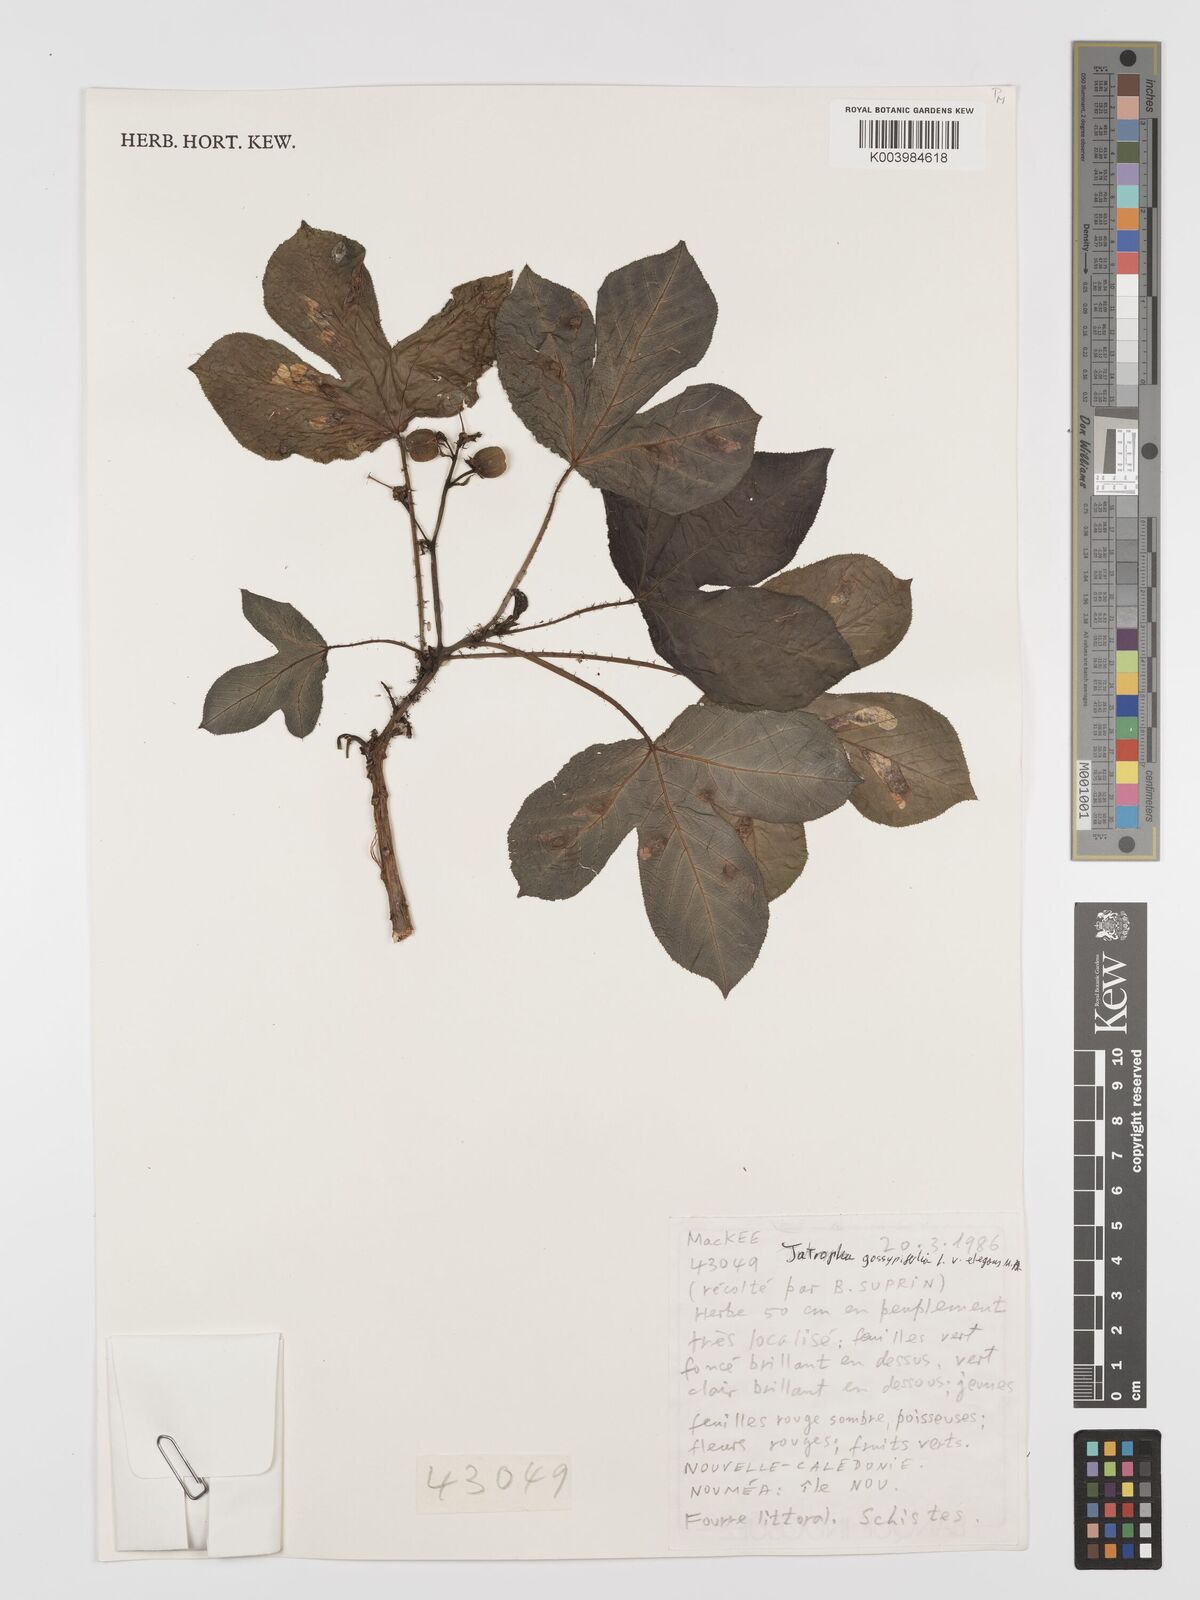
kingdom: Plantae
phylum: Tracheophyta
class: Magnoliopsida
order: Malpighiales
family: Euphorbiaceae
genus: Jatropha
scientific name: Jatropha gossypiifolia
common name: Bellyache bush
